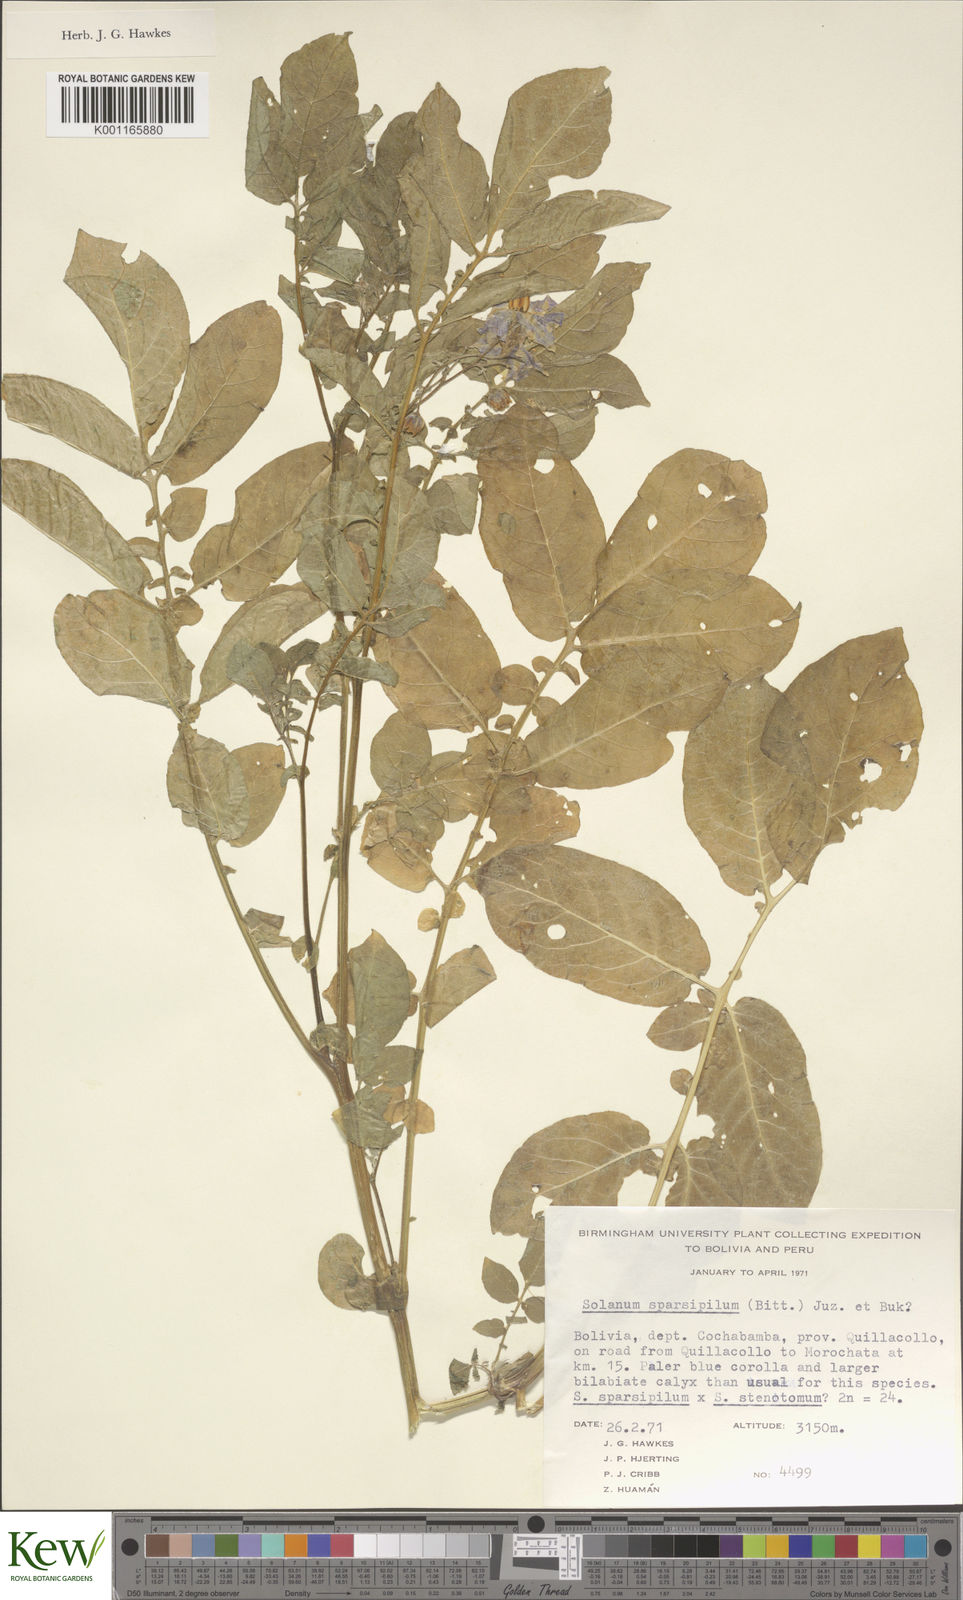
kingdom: Plantae
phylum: Tracheophyta
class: Magnoliopsida
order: Solanales
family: Solanaceae
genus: Solanum
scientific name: Solanum brevicaule
